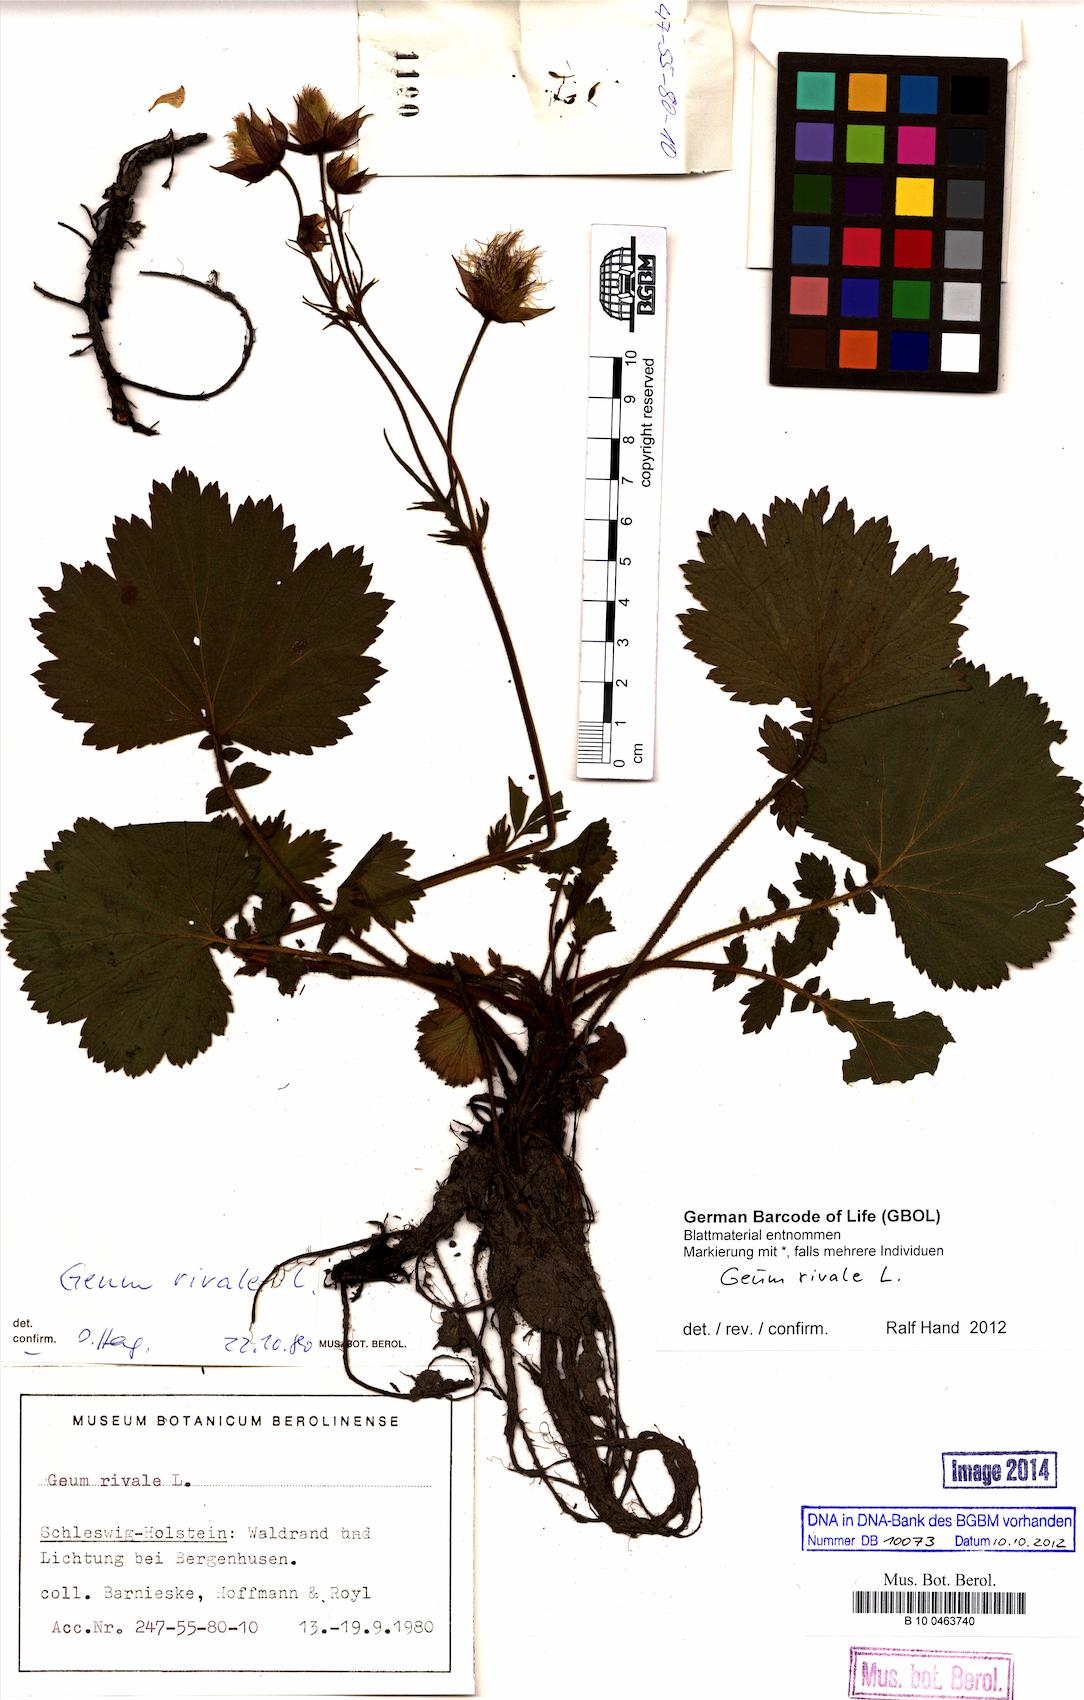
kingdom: Plantae
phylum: Tracheophyta
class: Magnoliopsida
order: Rosales
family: Rosaceae
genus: Geum
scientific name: Geum rivale
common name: Water avens
